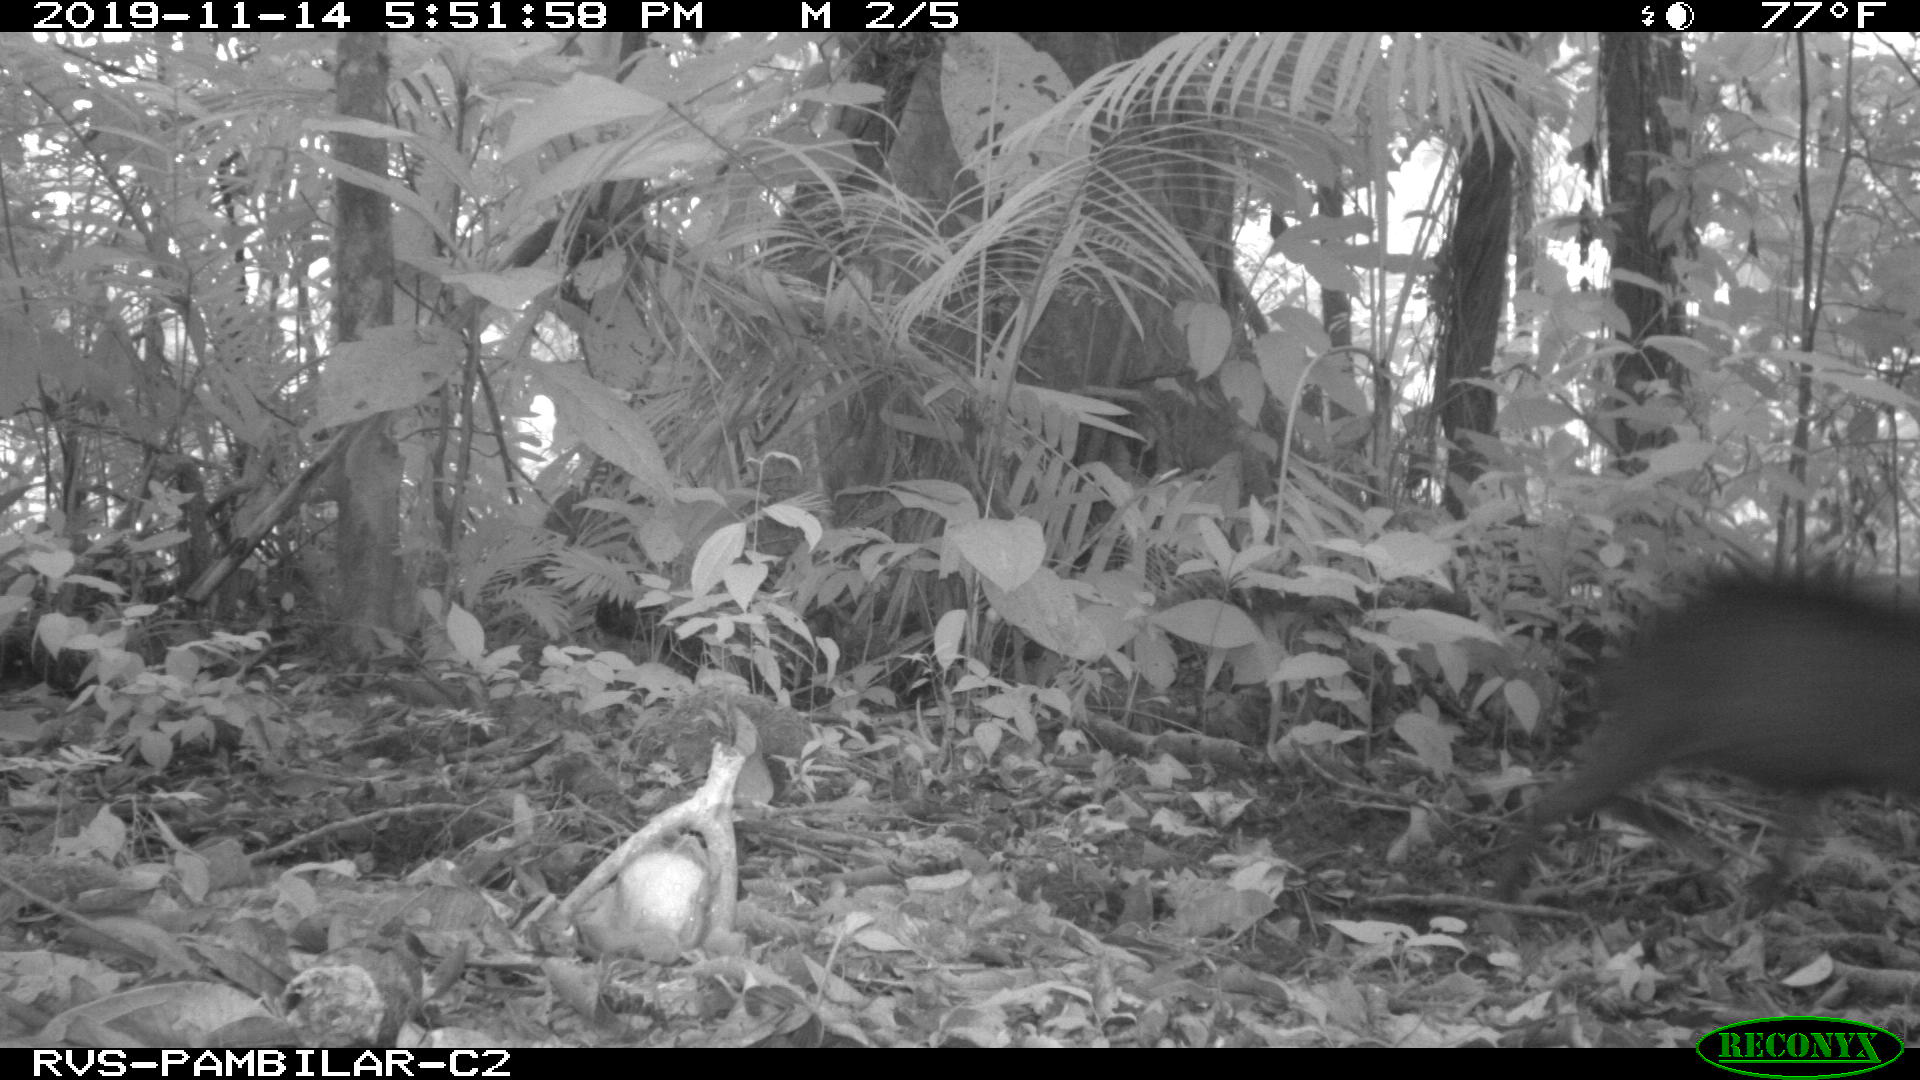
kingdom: Animalia
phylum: Chordata
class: Mammalia
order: Artiodactyla
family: Tayassuidae
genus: Tayassu
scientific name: Tayassu pecari
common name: White-lipped peccary
